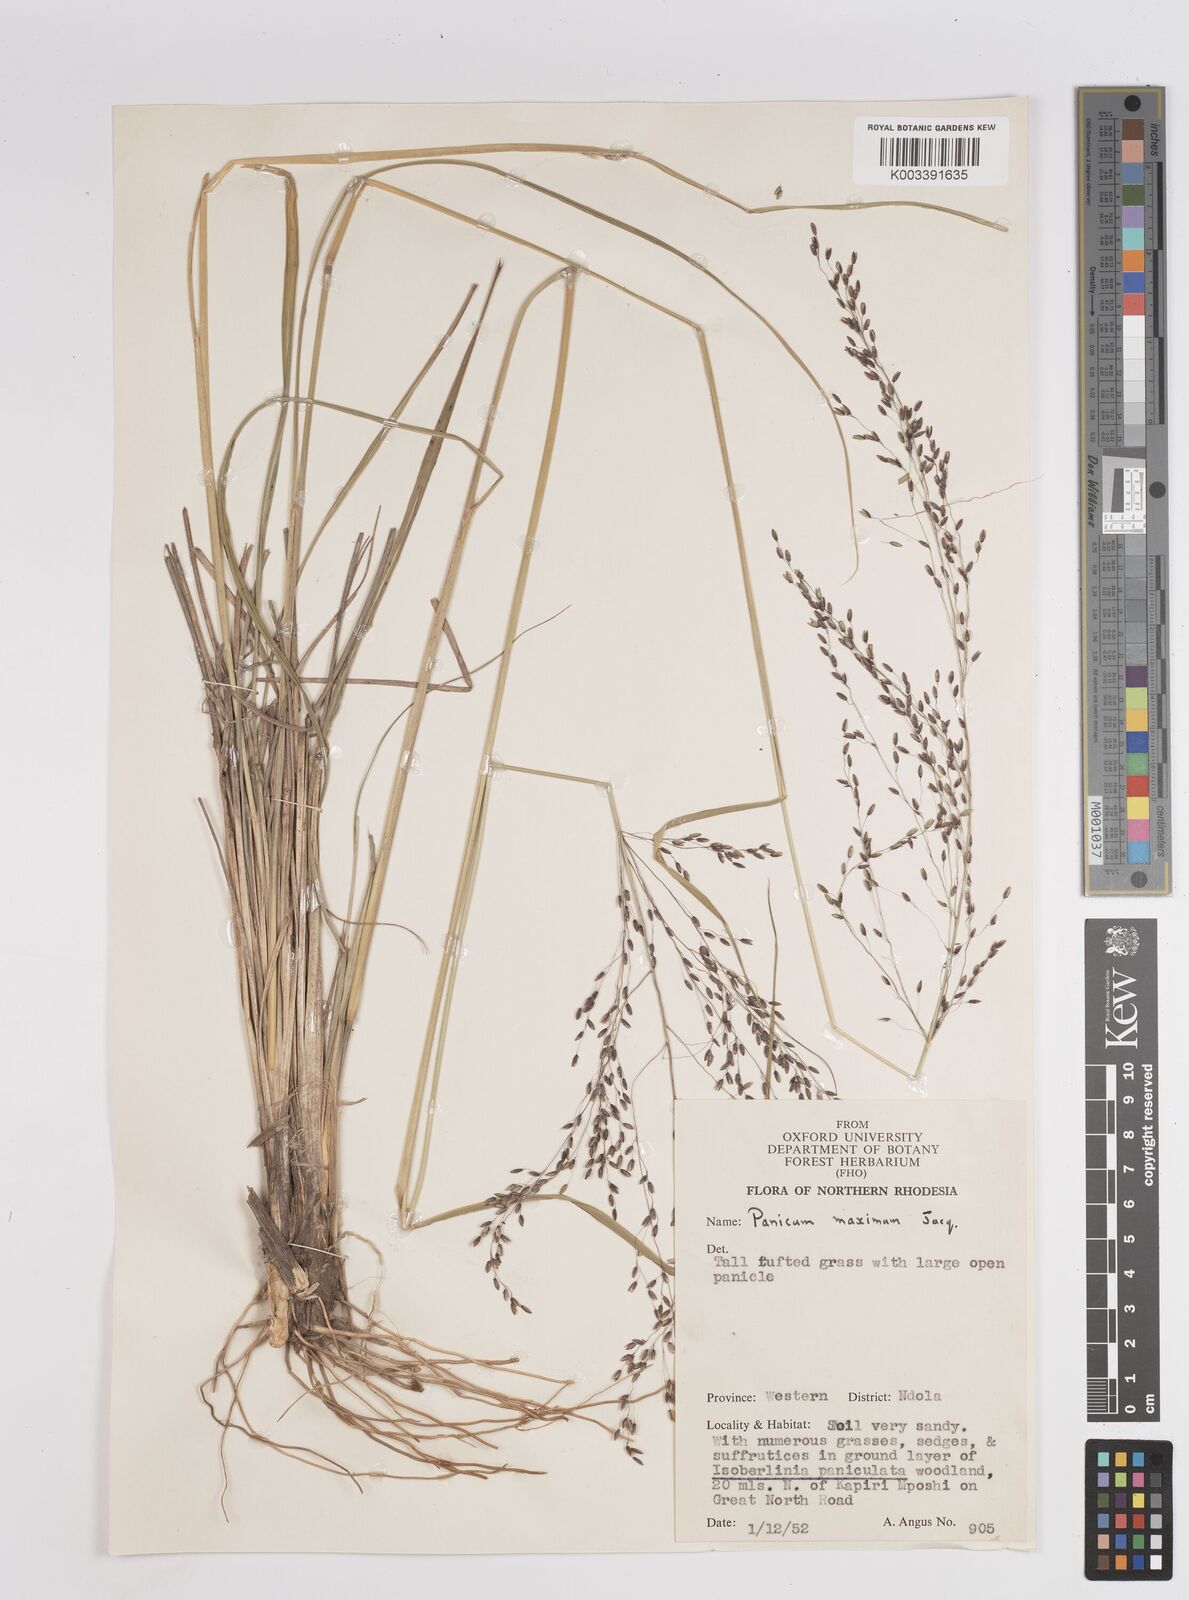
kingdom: Plantae
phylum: Tracheophyta
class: Liliopsida
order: Poales
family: Poaceae
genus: Megathyrsus
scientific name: Megathyrsus maximus
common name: Guineagrass
